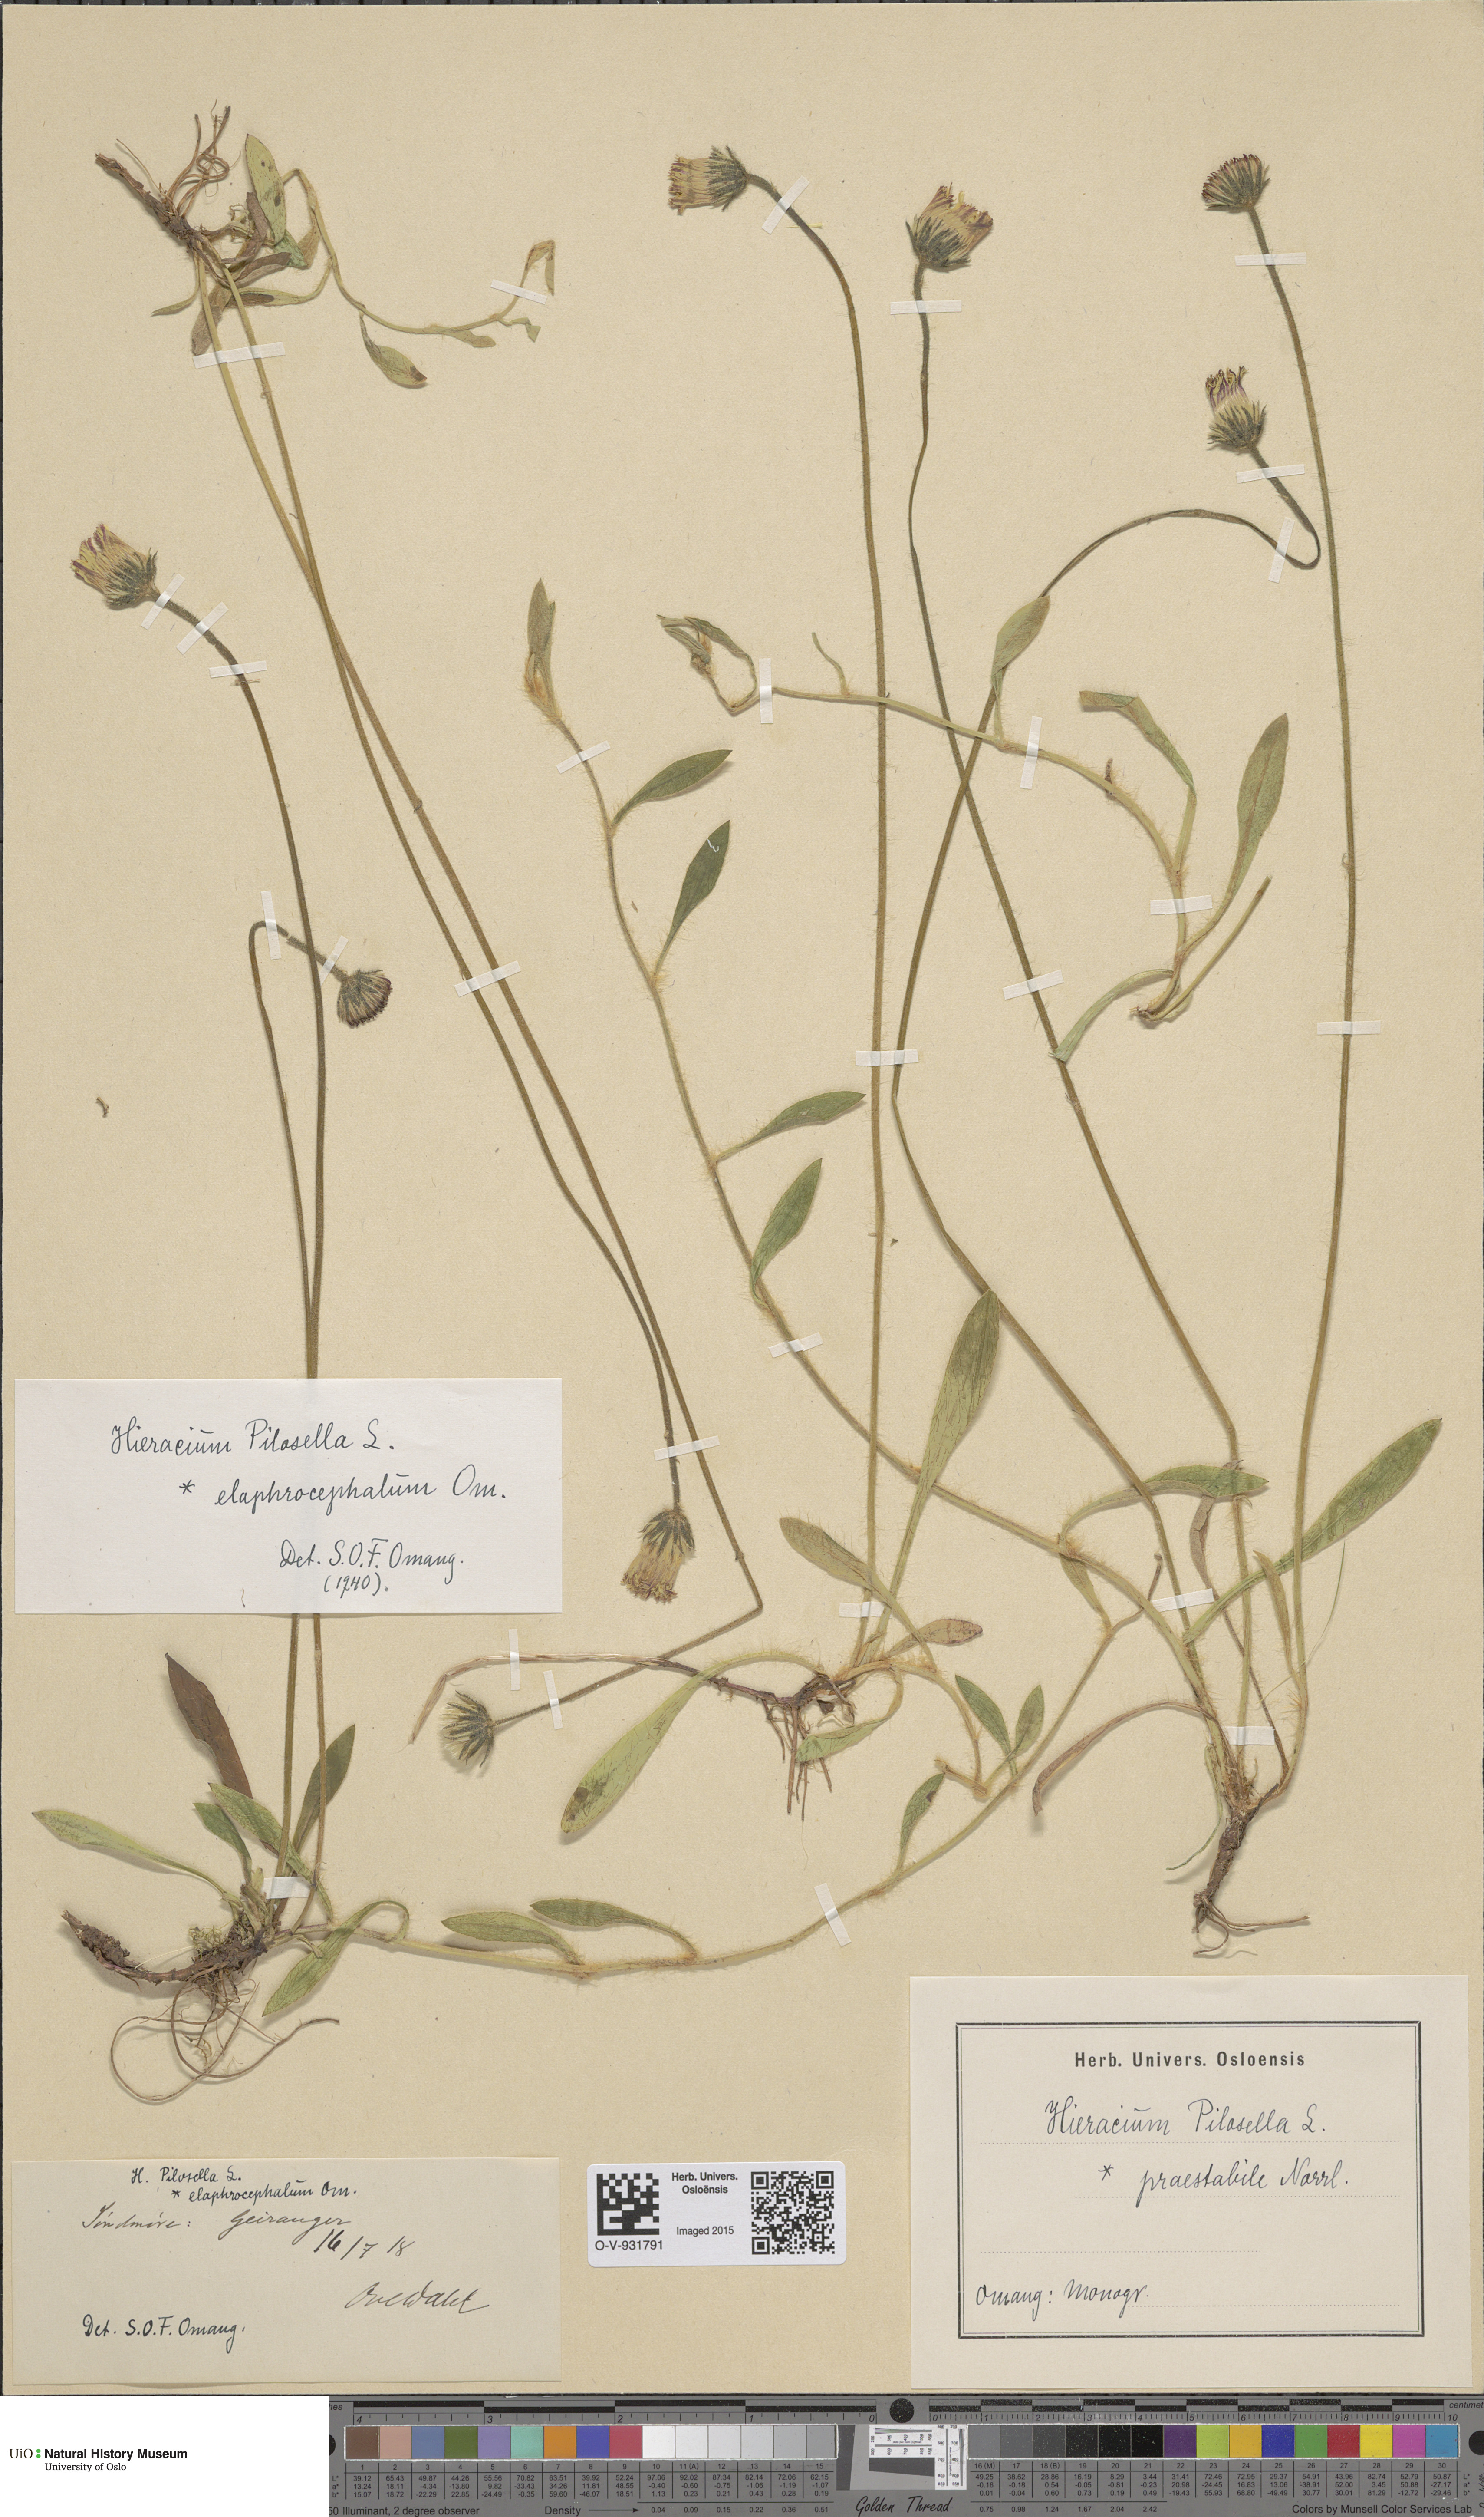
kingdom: Plantae
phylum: Tracheophyta
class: Magnoliopsida
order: Asterales
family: Asteraceae
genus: Pilosella
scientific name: Pilosella officinarum
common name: Mouse-ear hawkweed
